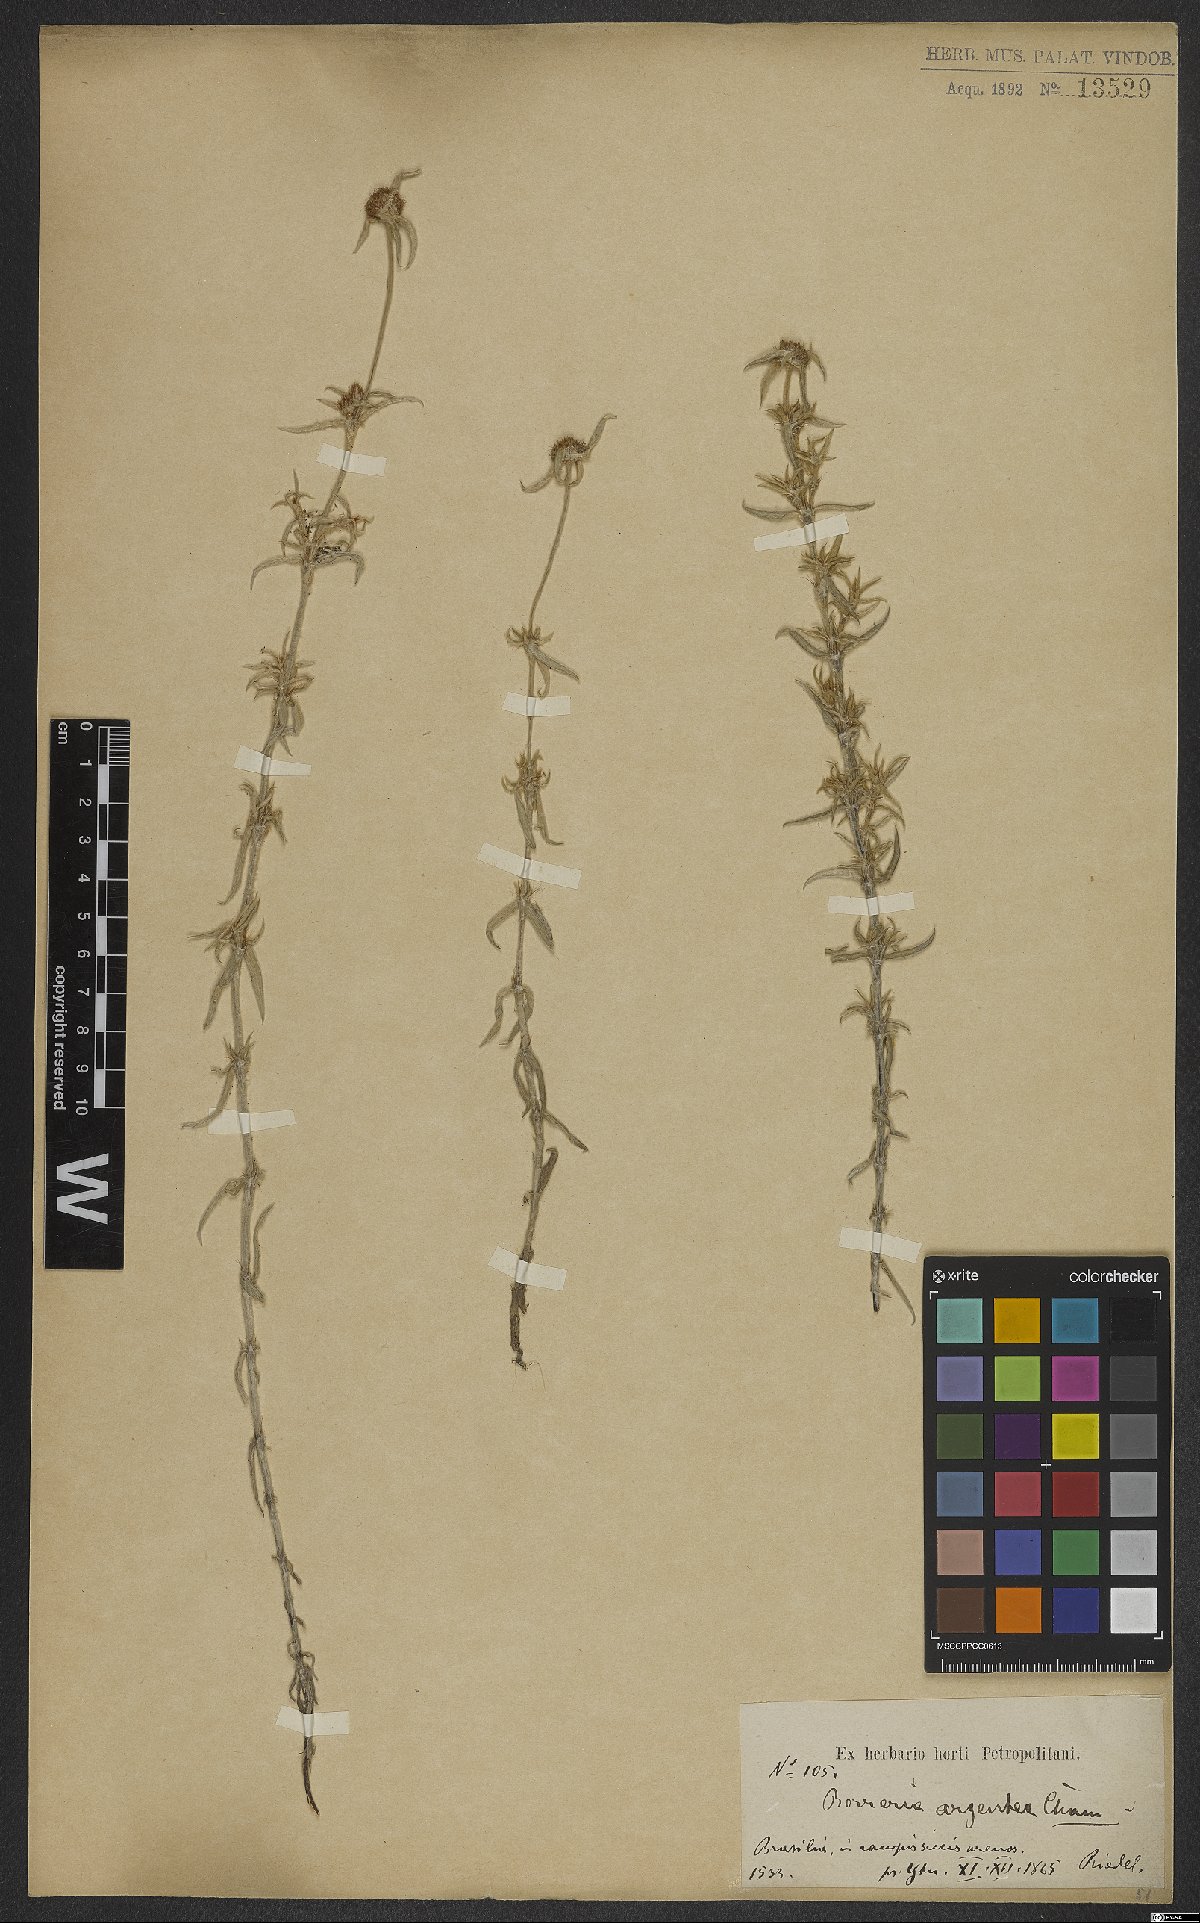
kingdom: Plantae
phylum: Tracheophyta
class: Magnoliopsida
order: Gentianales
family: Rubiaceae
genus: Spermacoce
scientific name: Spermacoce argentea
